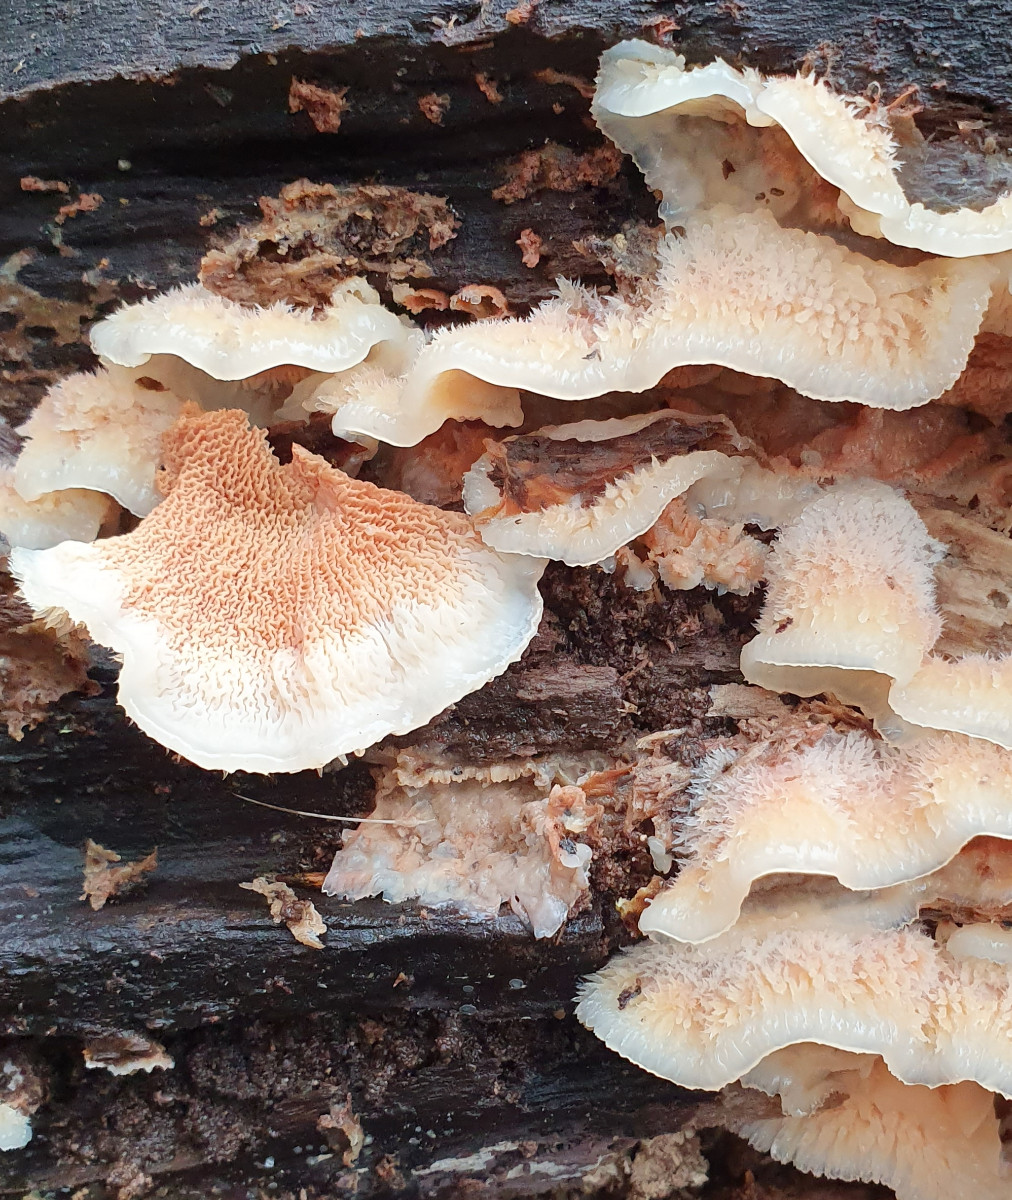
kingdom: Fungi
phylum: Basidiomycota
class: Agaricomycetes
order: Polyporales
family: Meruliaceae
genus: Phlebia
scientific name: Phlebia tremellosa
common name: bævrende åresvamp
